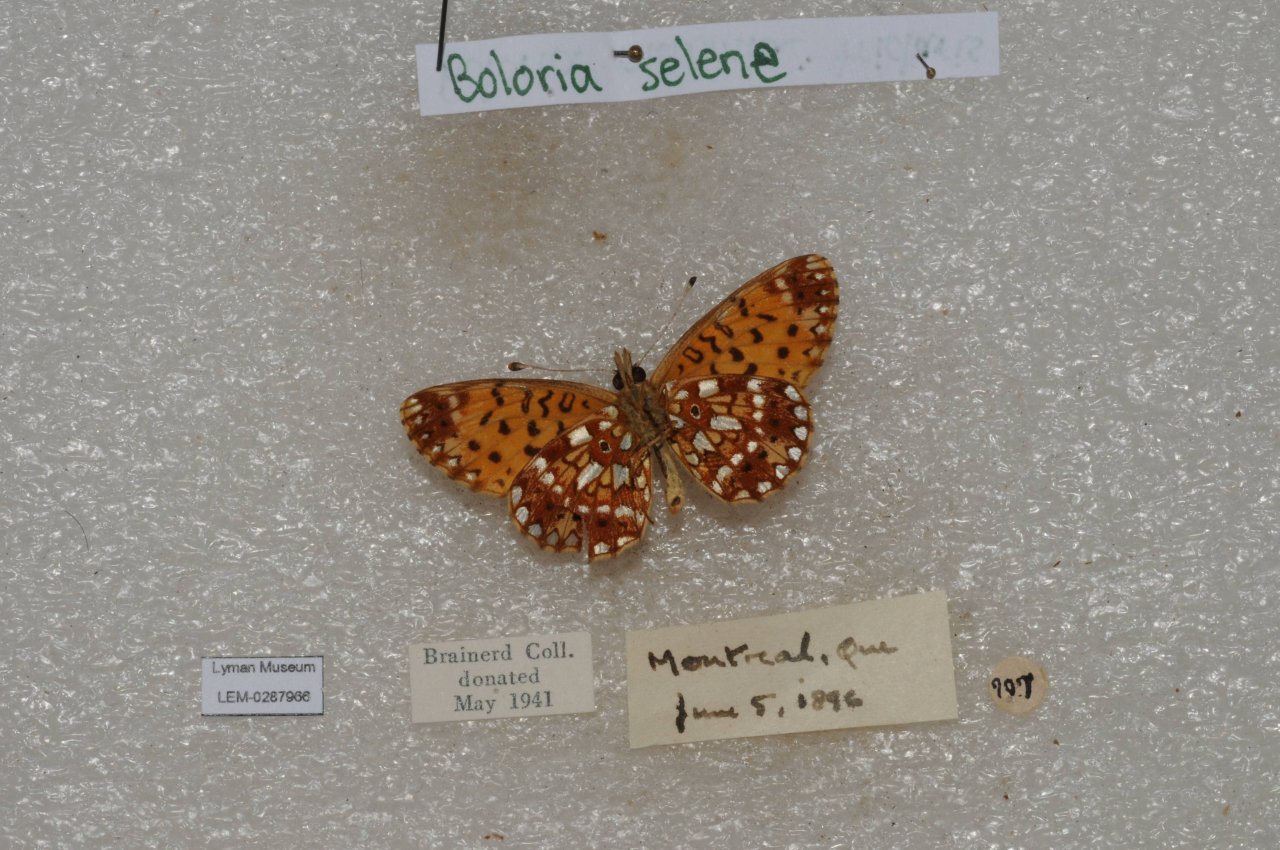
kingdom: Animalia
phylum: Arthropoda
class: Insecta
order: Lepidoptera
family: Nymphalidae
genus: Boloria
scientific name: Boloria selene
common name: Silver-bordered Fritillary
